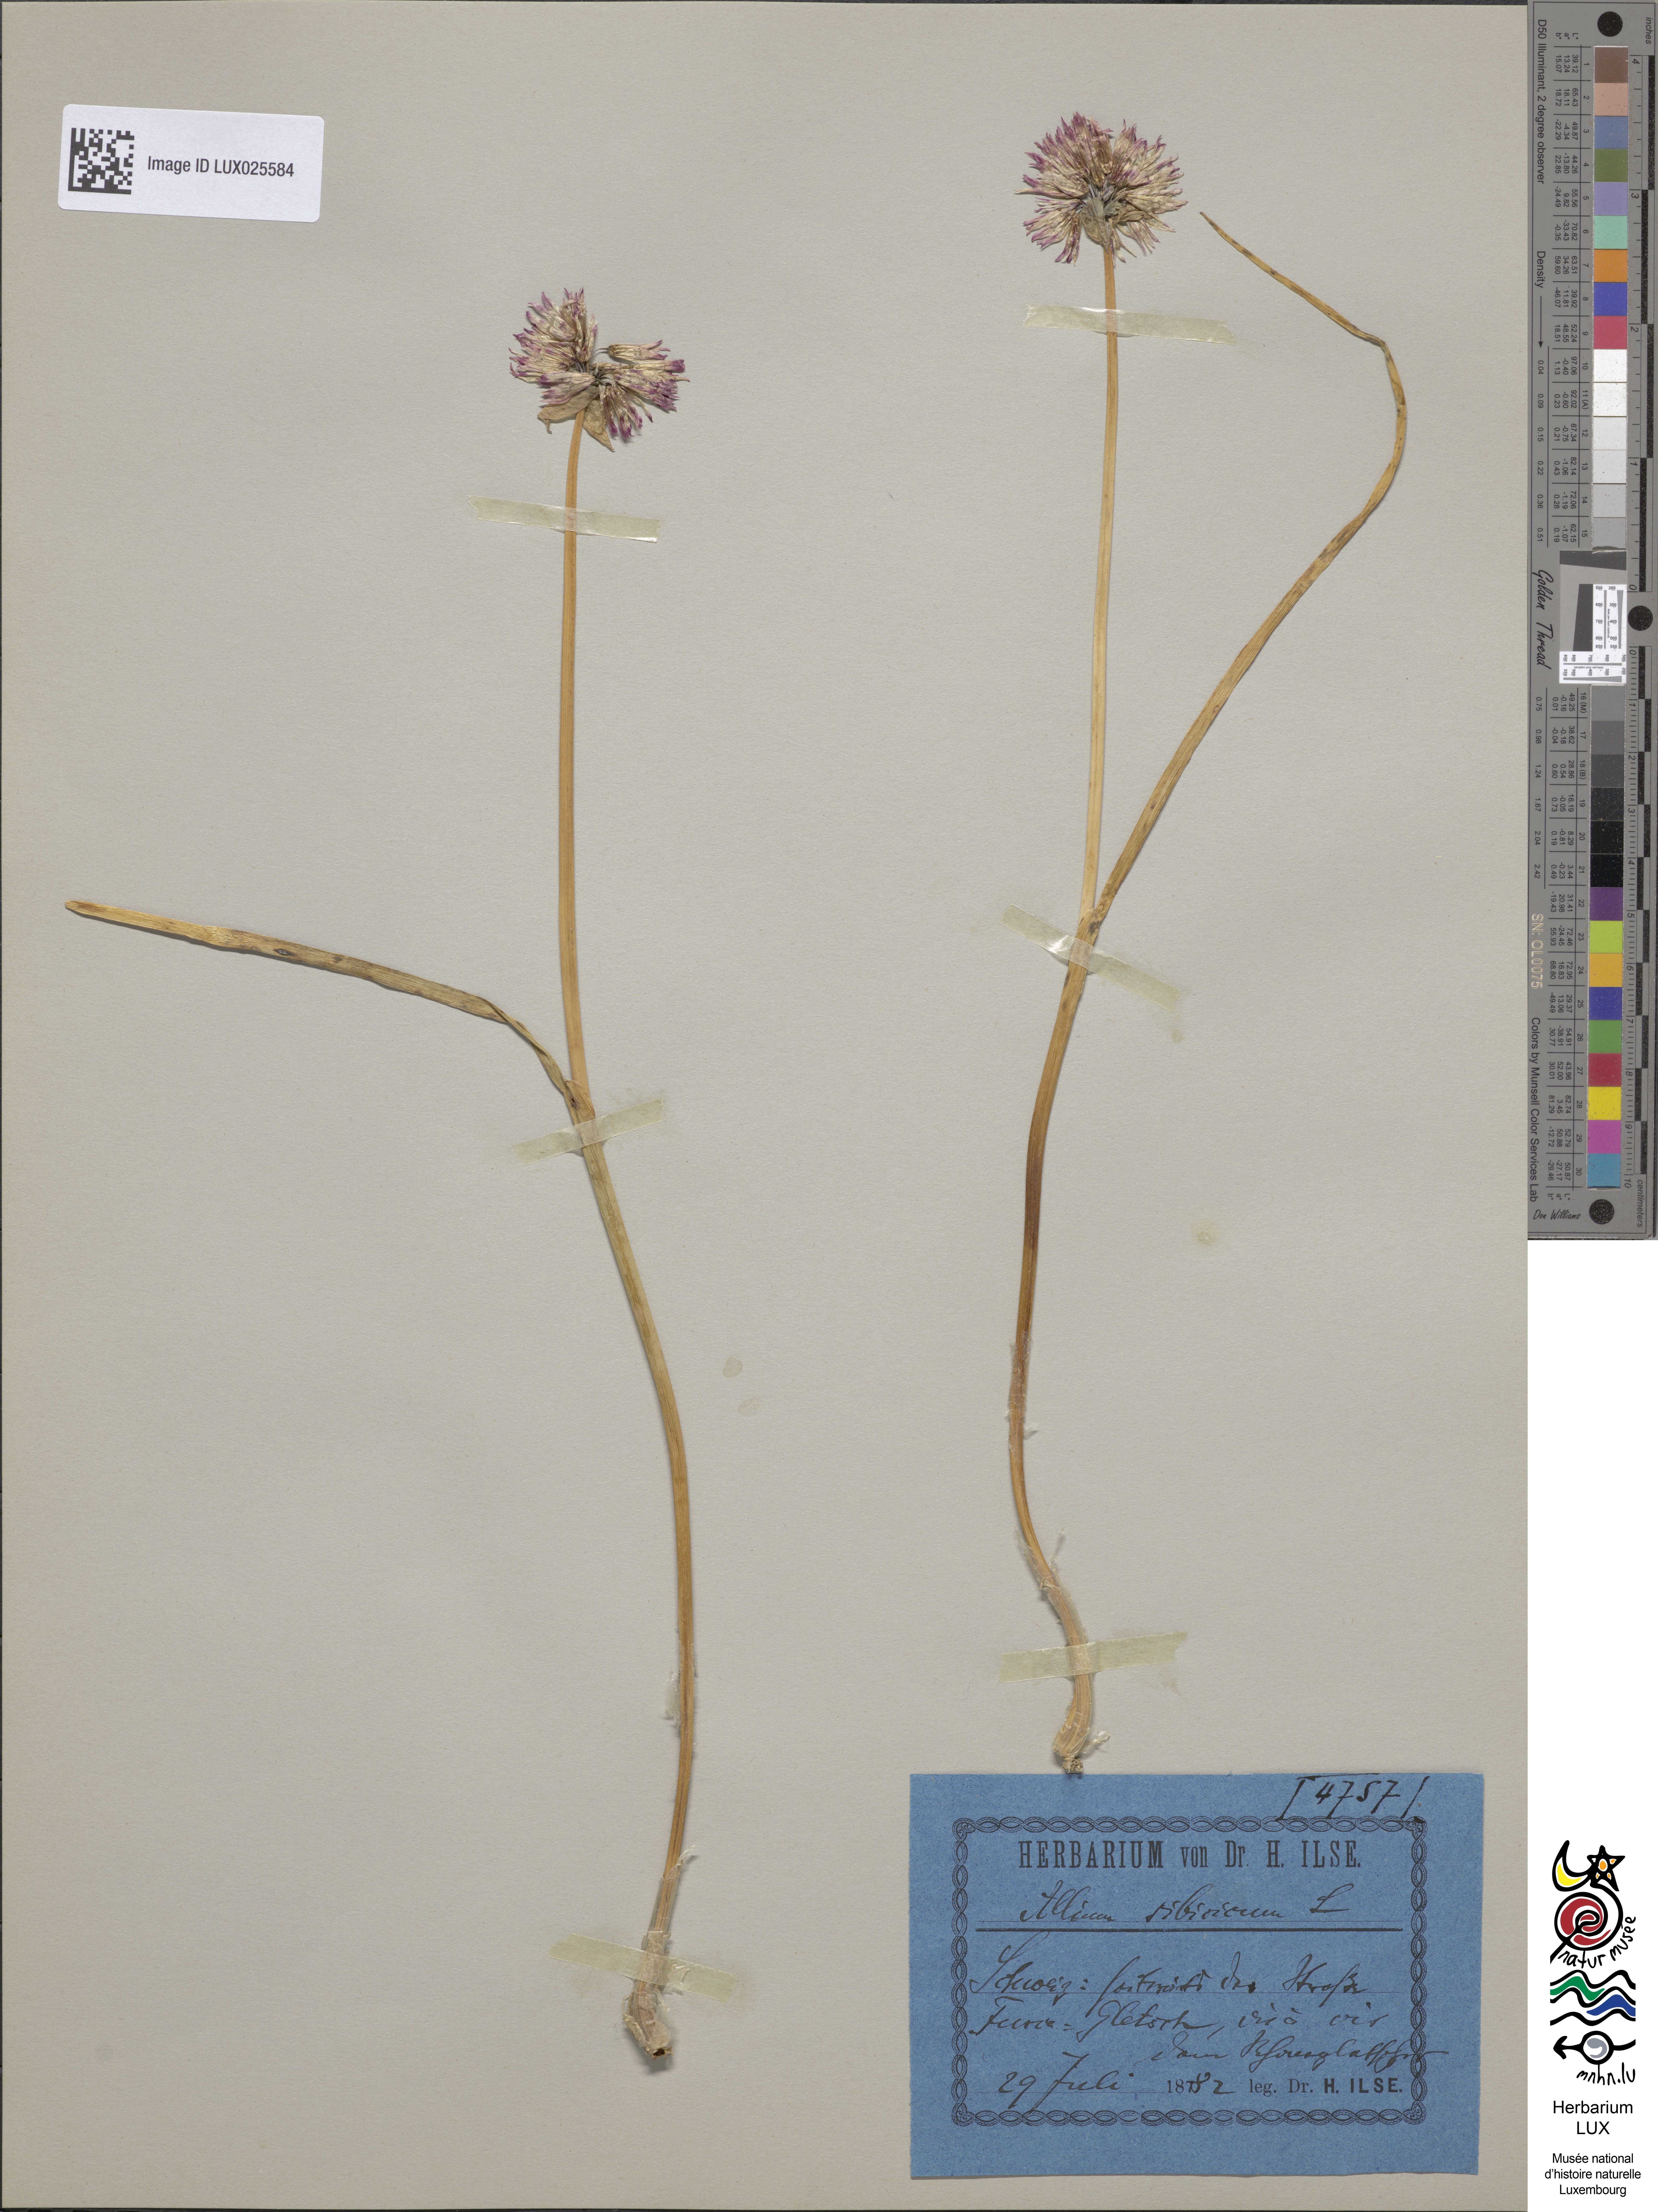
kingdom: Plantae
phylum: Tracheophyta
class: Liliopsida
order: Asparagales
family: Amaryllidaceae
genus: Allium
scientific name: Allium schoenoprasum
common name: Chives
